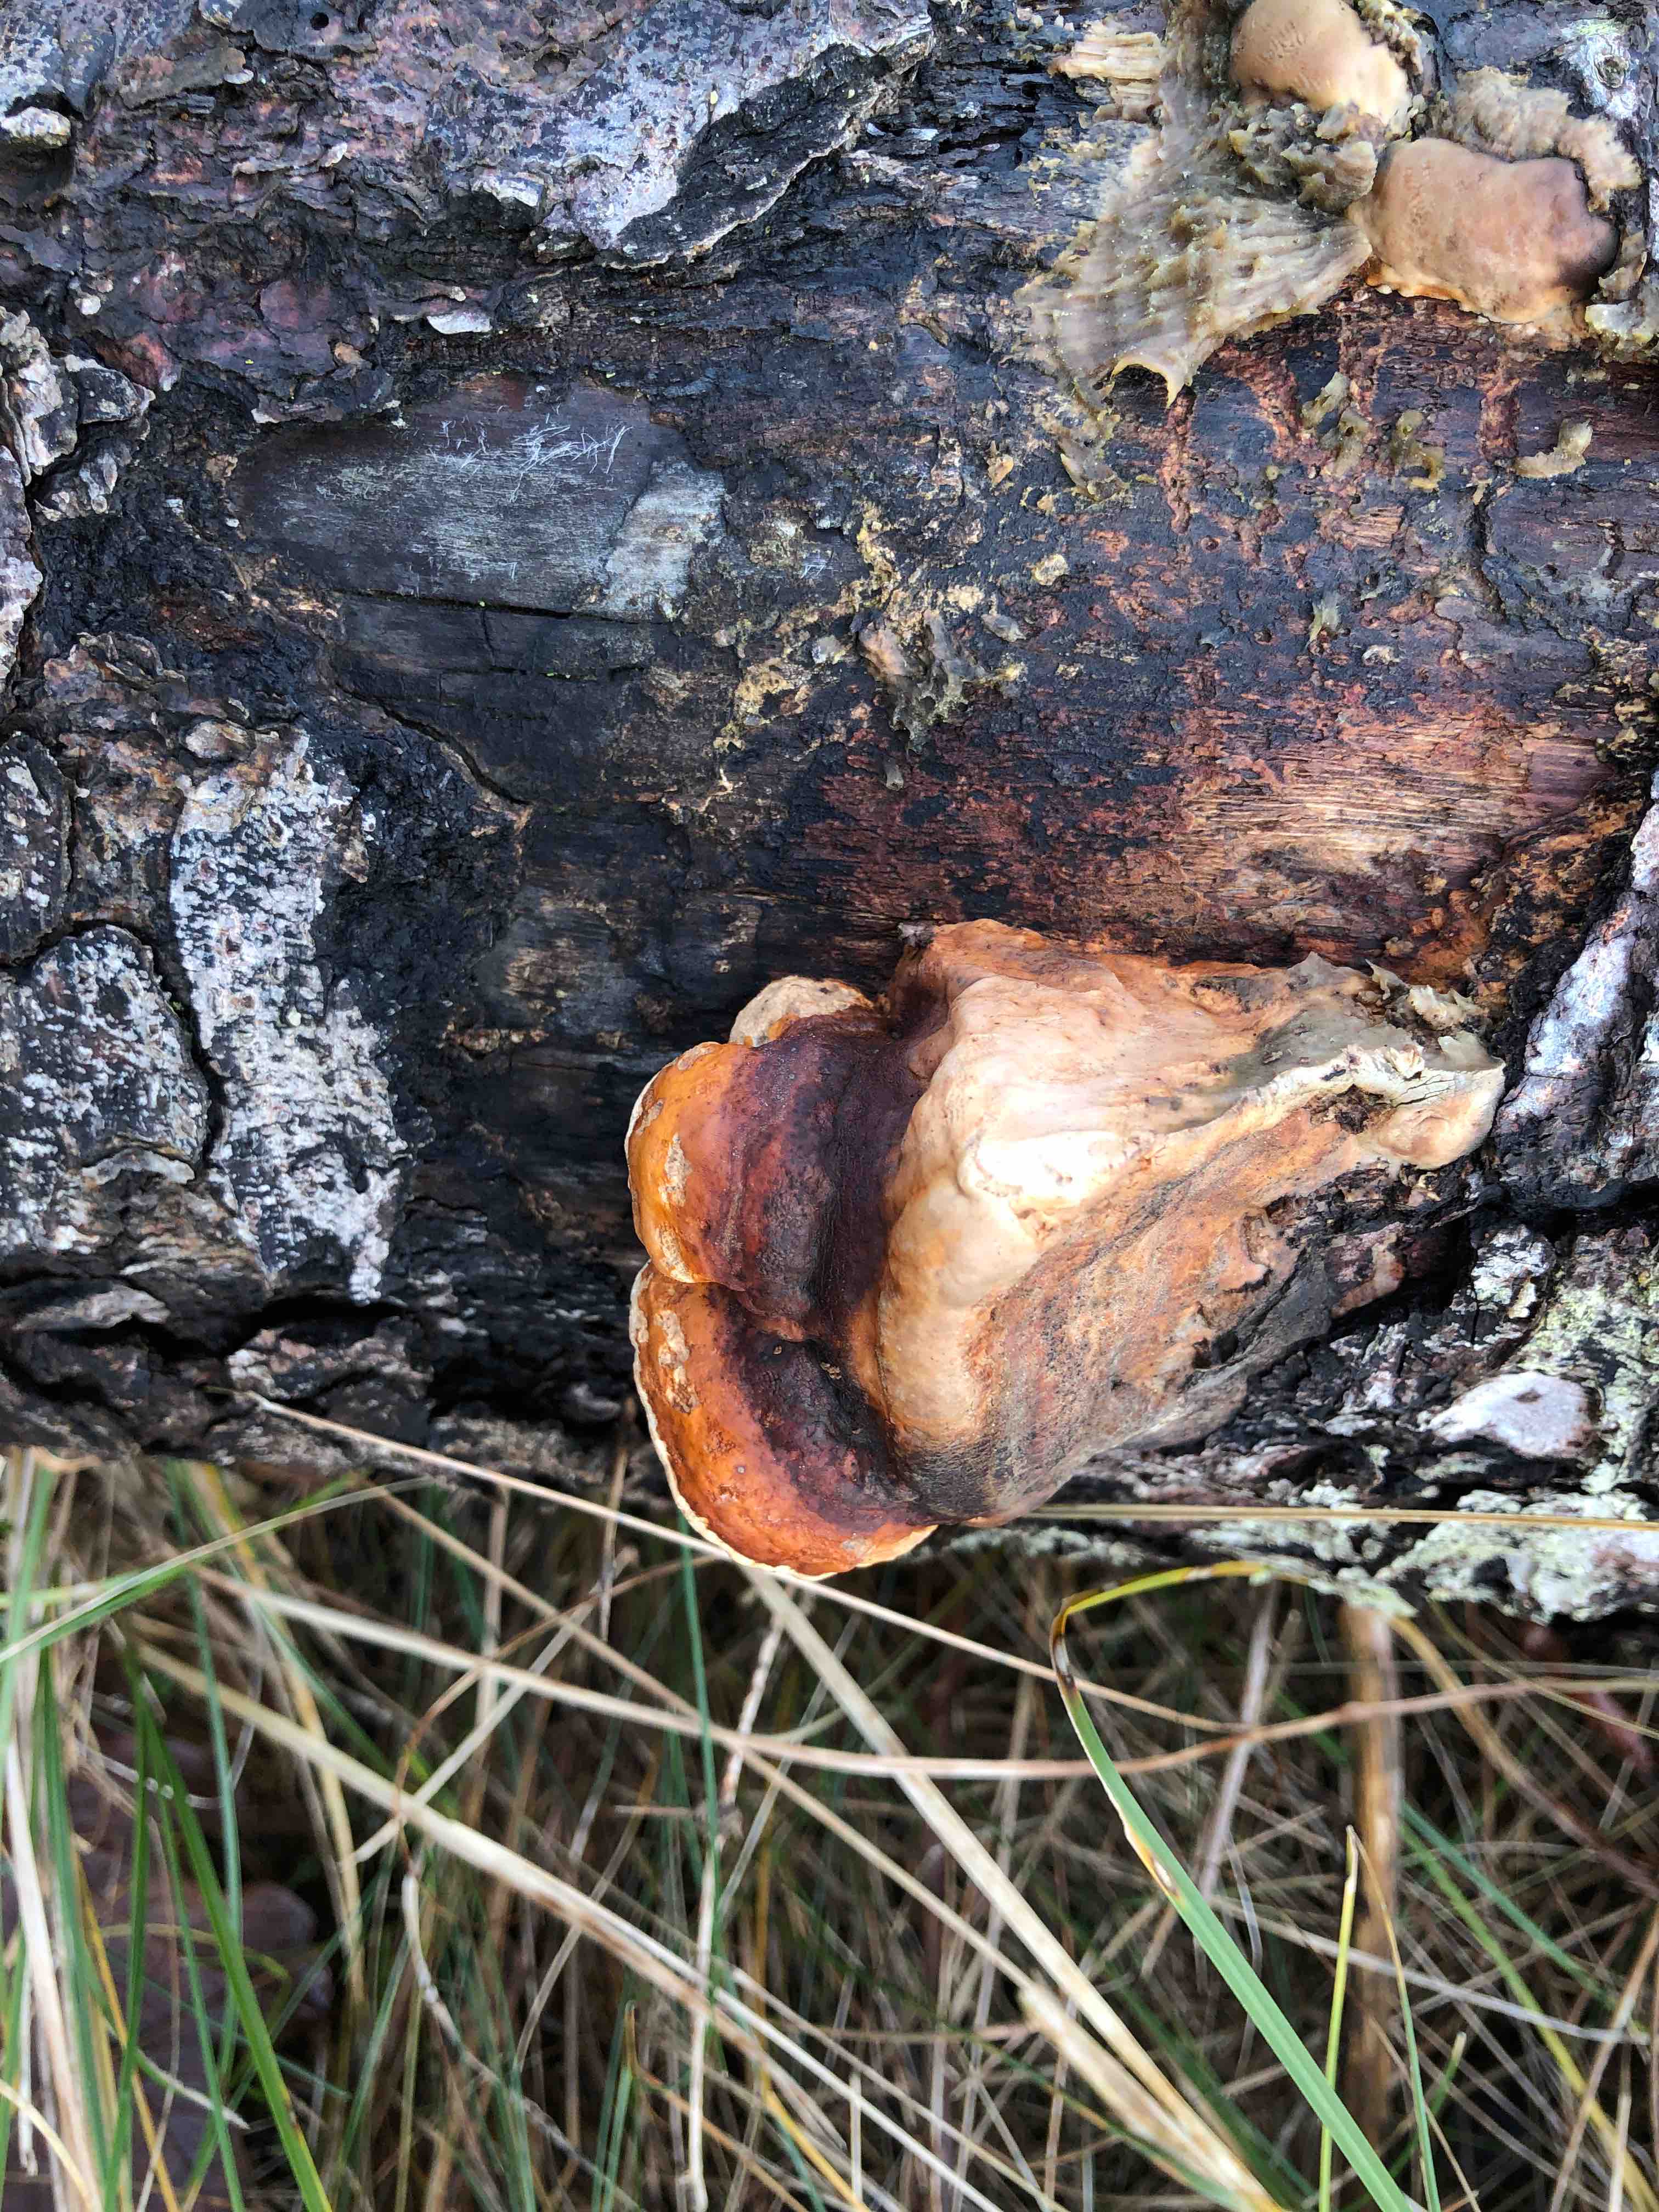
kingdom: Fungi
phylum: Basidiomycota
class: Agaricomycetes
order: Polyporales
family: Fomitopsidaceae
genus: Fomitopsis
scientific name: Fomitopsis pinicola
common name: randbæltet hovporesvamp
